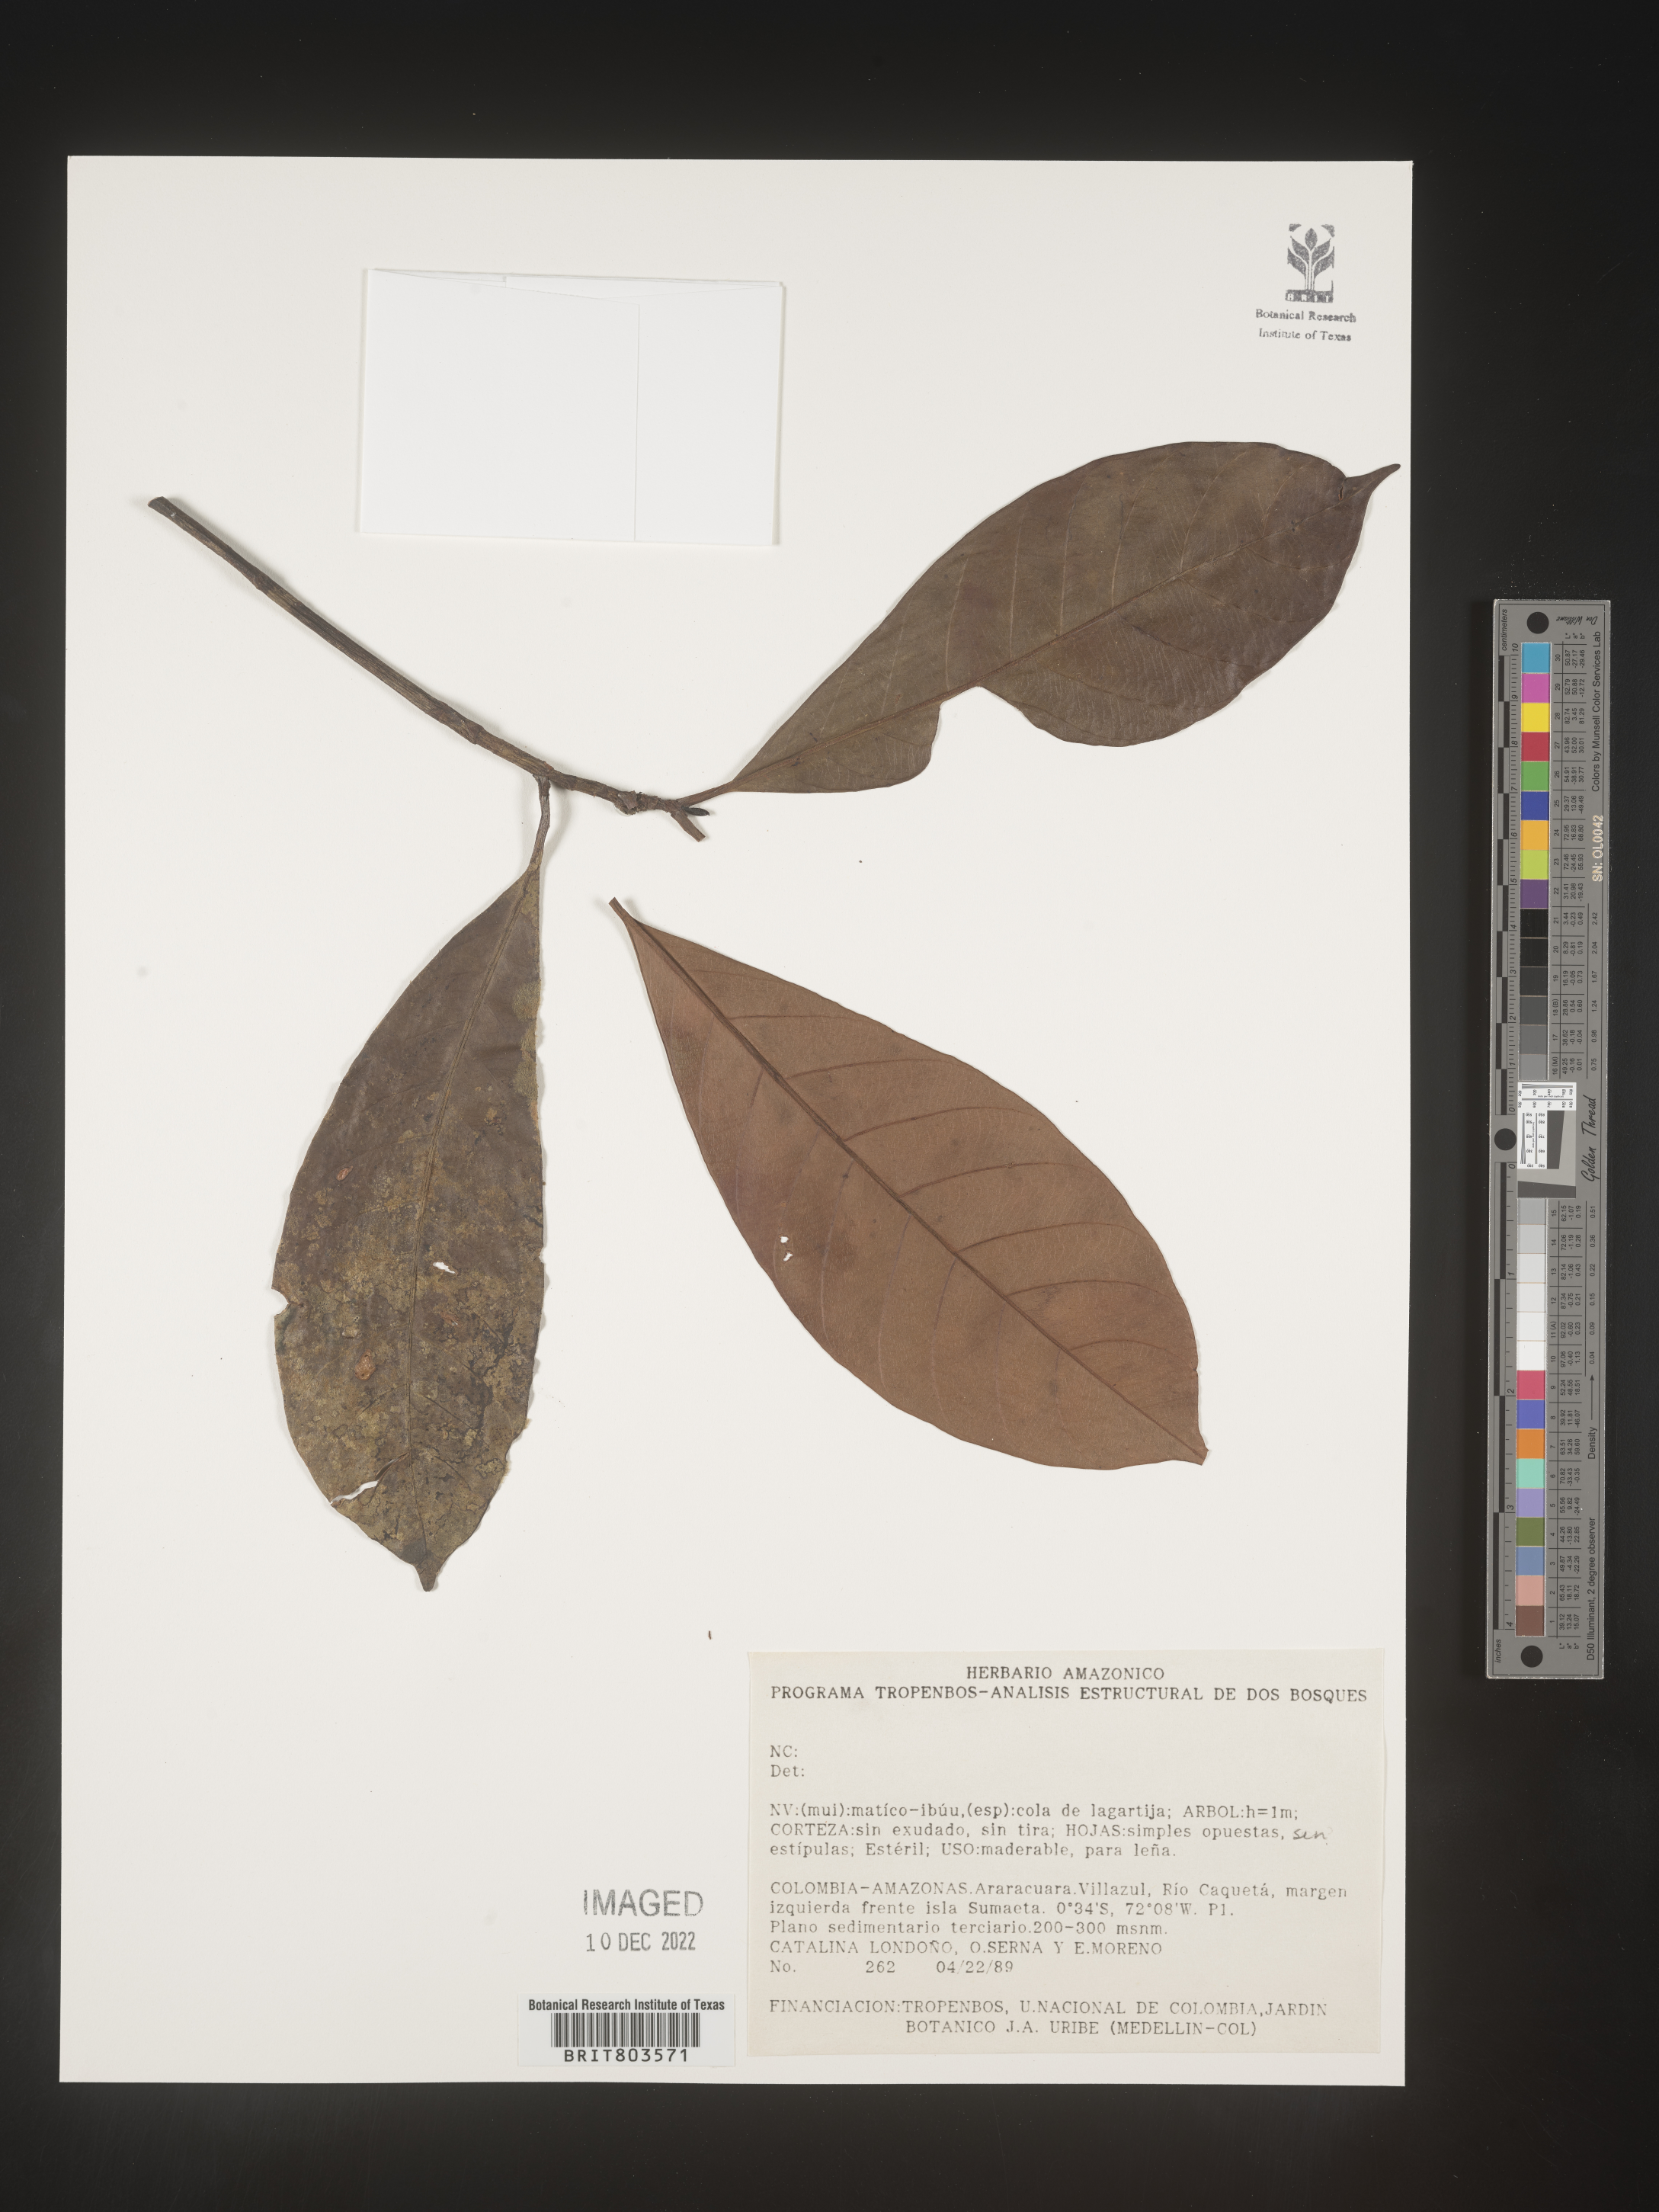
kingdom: Plantae
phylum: Tracheophyta
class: Magnoliopsida
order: Malpighiales
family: Clusiaceae
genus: Tovomita
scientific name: Tovomita
